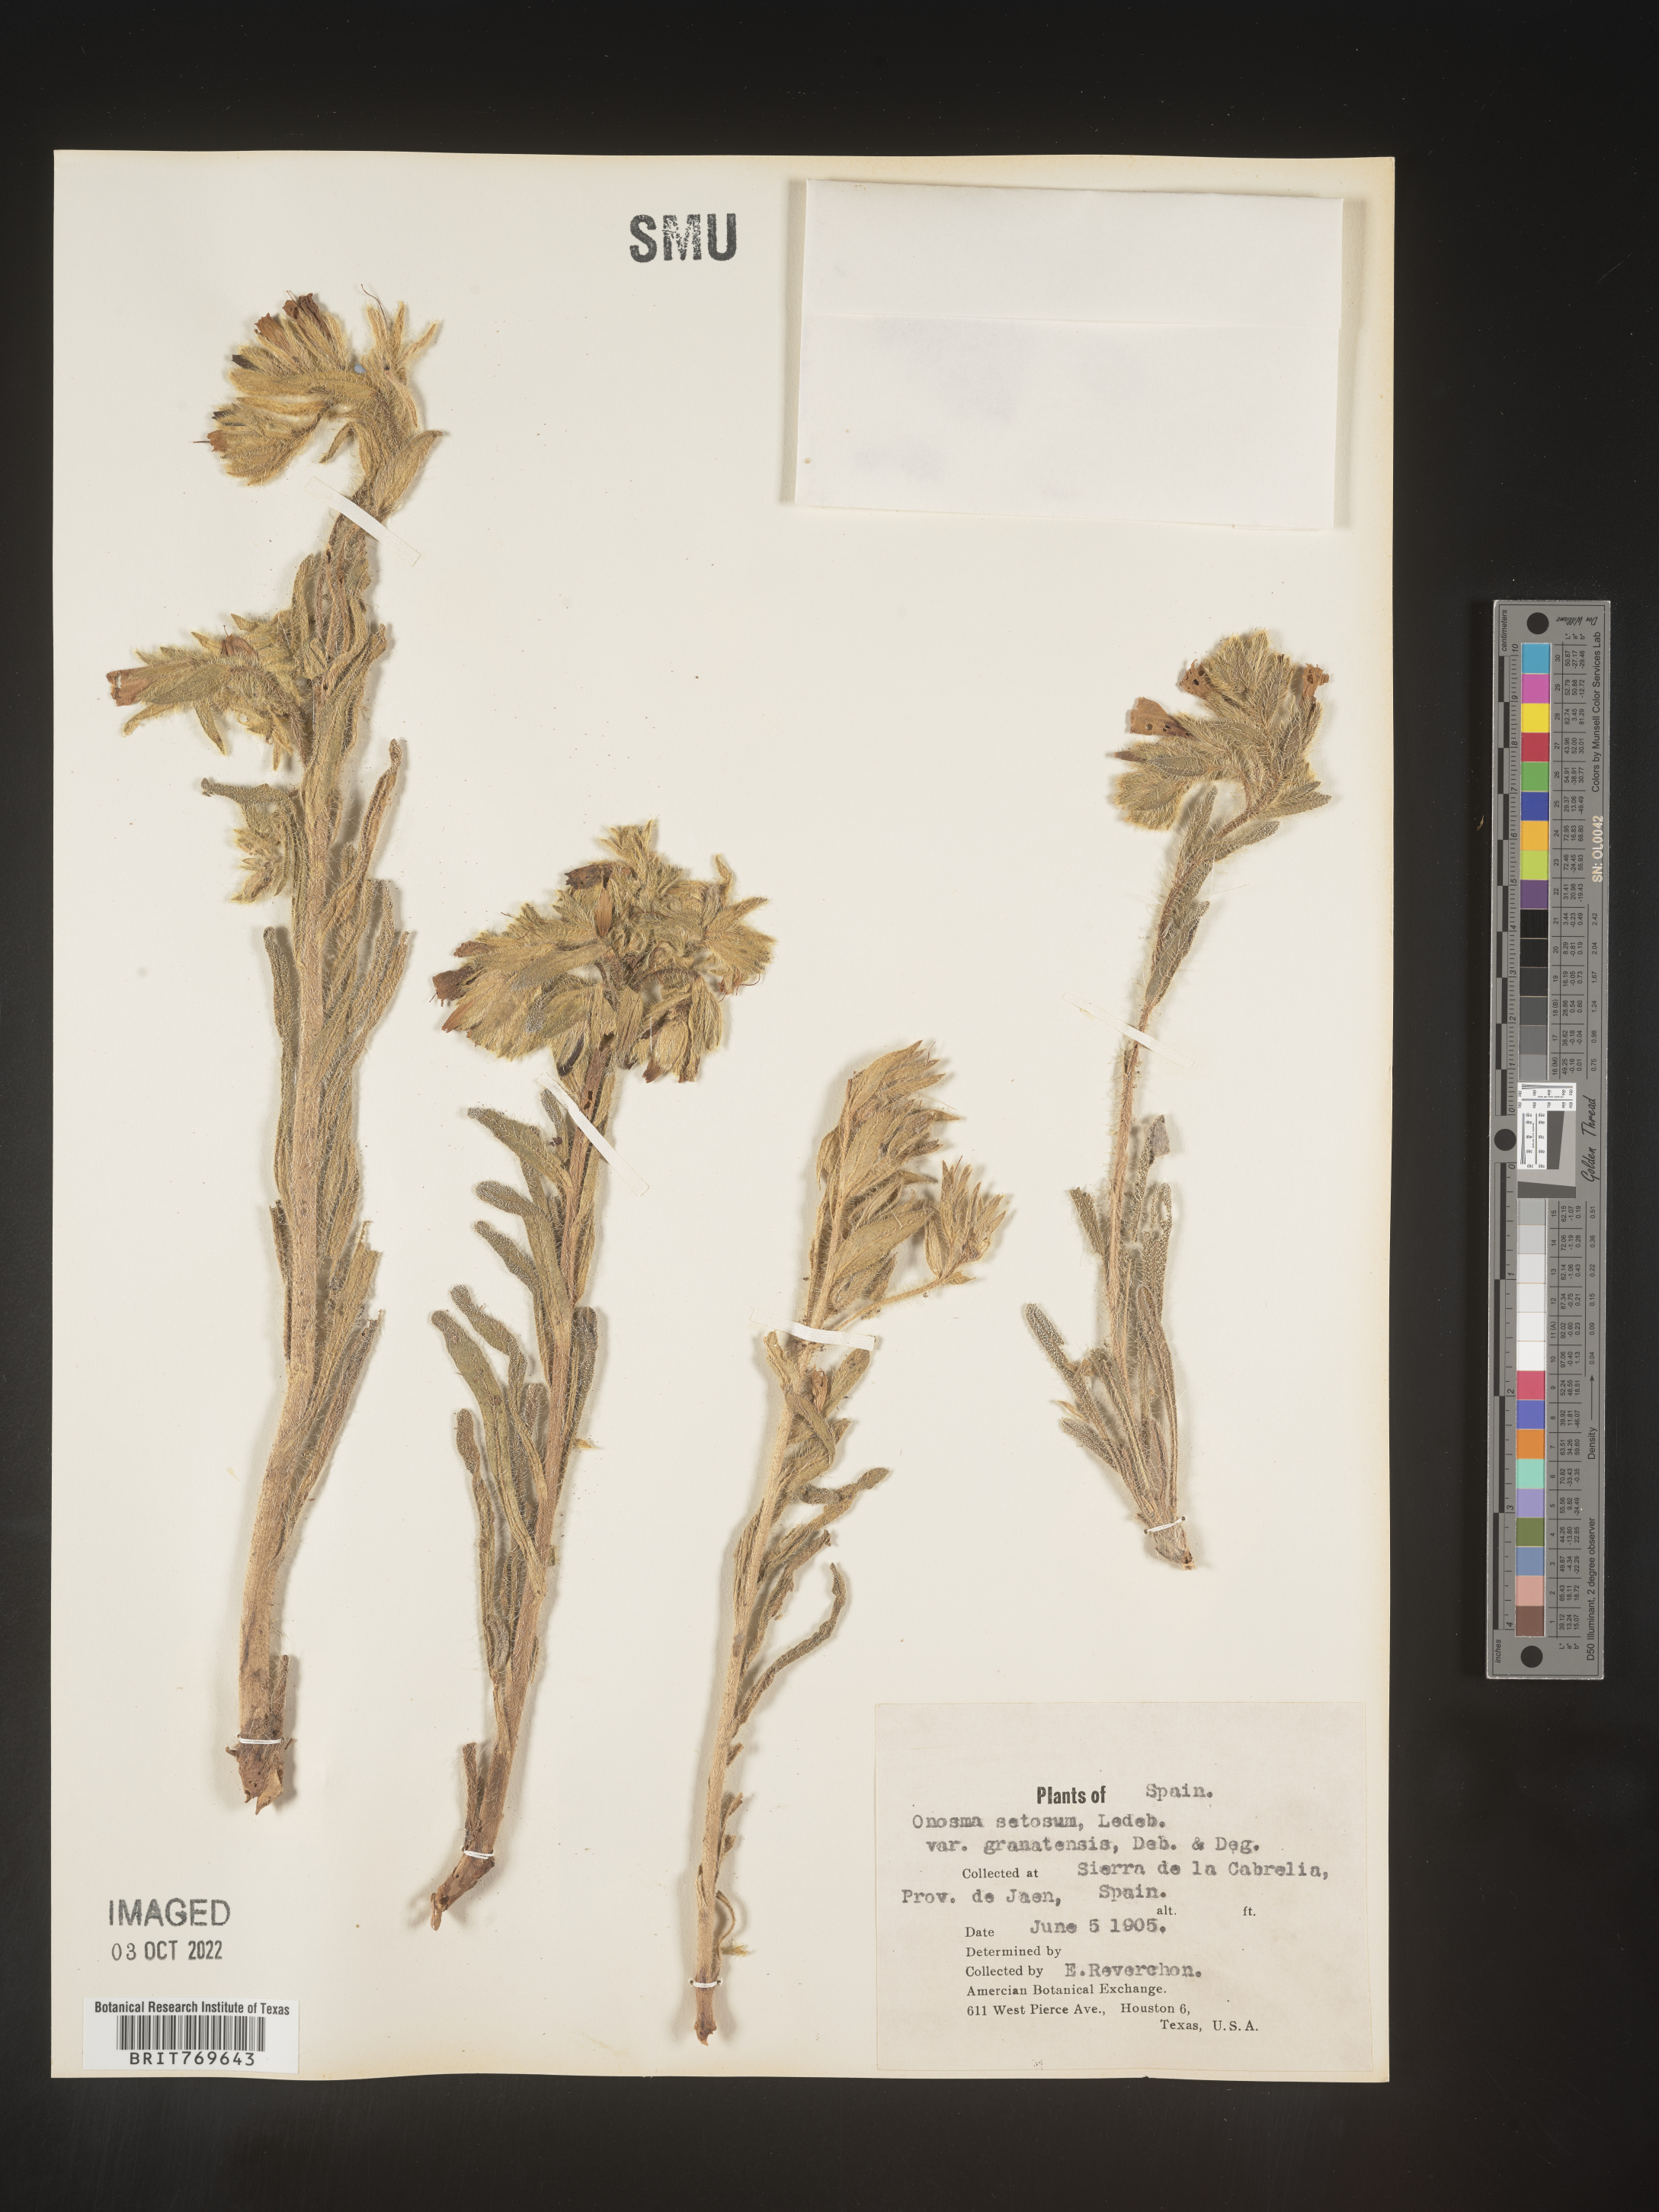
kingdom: Plantae
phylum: Tracheophyta
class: Magnoliopsida
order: Boraginales
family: Boraginaceae
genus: Onosma
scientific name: Onosma
